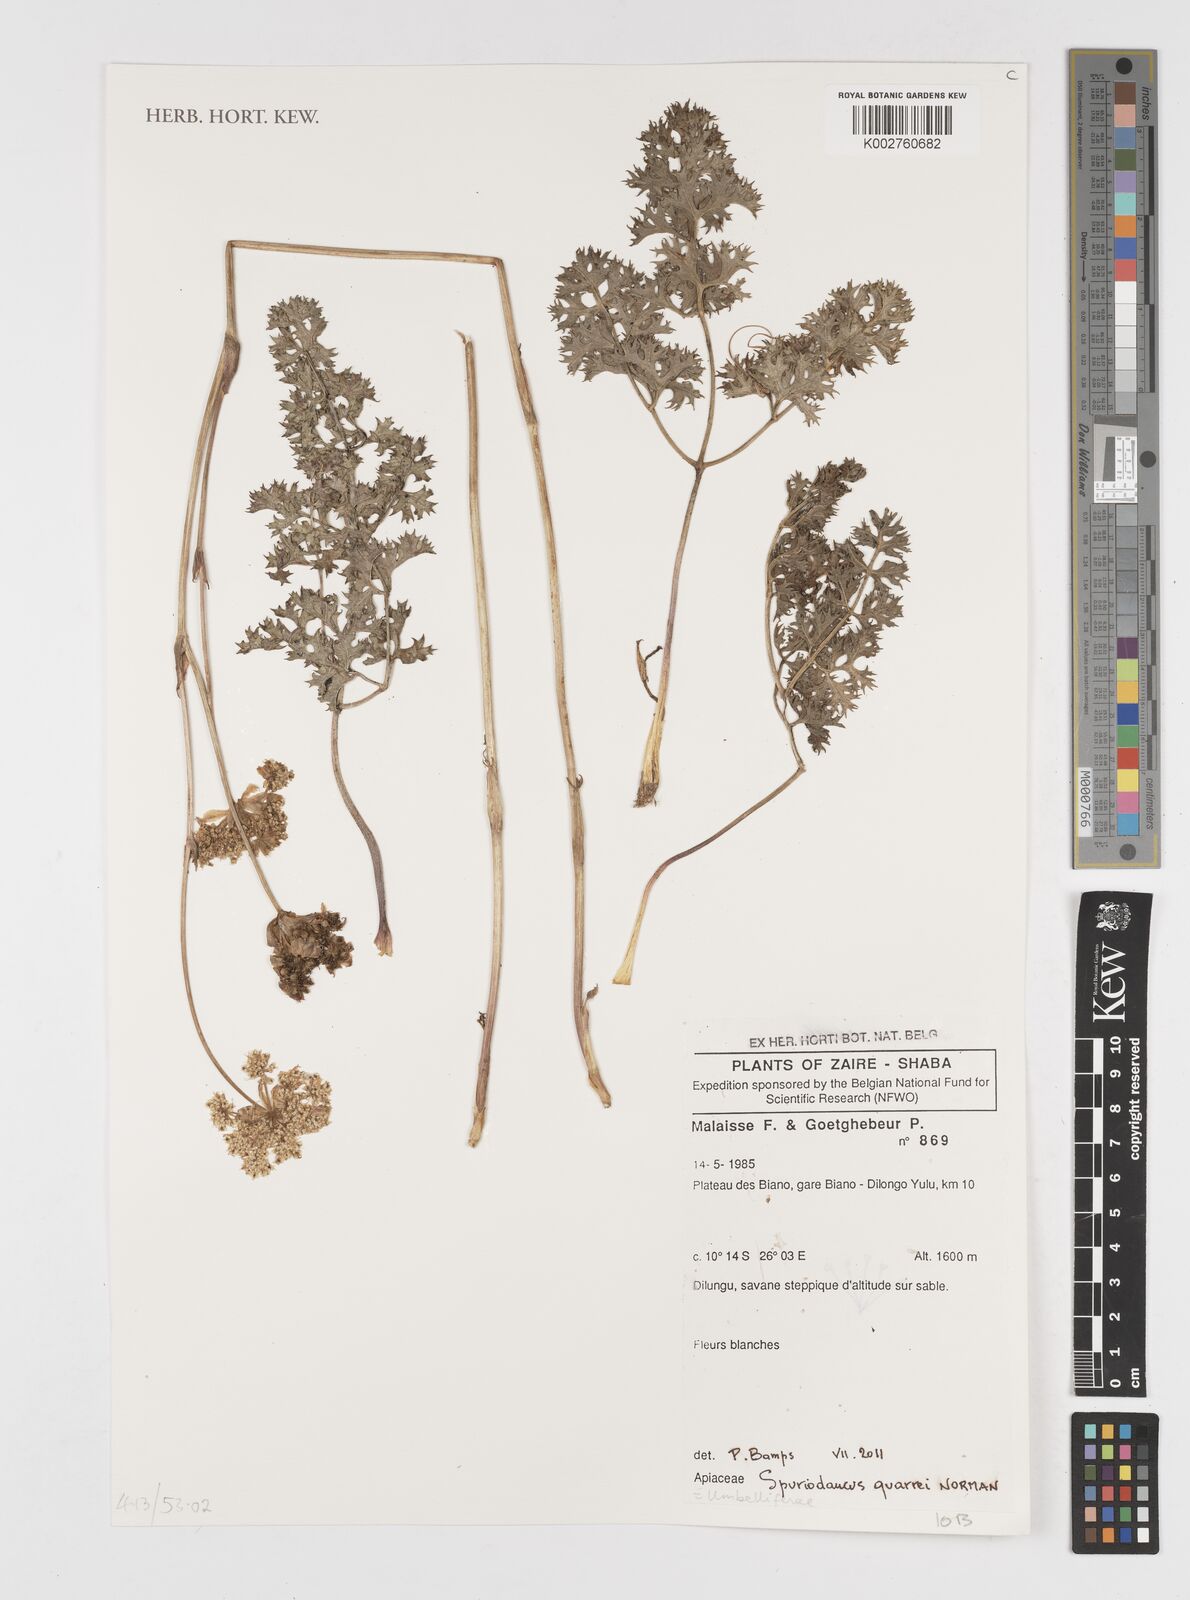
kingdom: Plantae
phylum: Tracheophyta
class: Magnoliopsida
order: Apiales
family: Apiaceae
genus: Physotrichia
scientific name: Physotrichia Spuriodaucus quarrei
